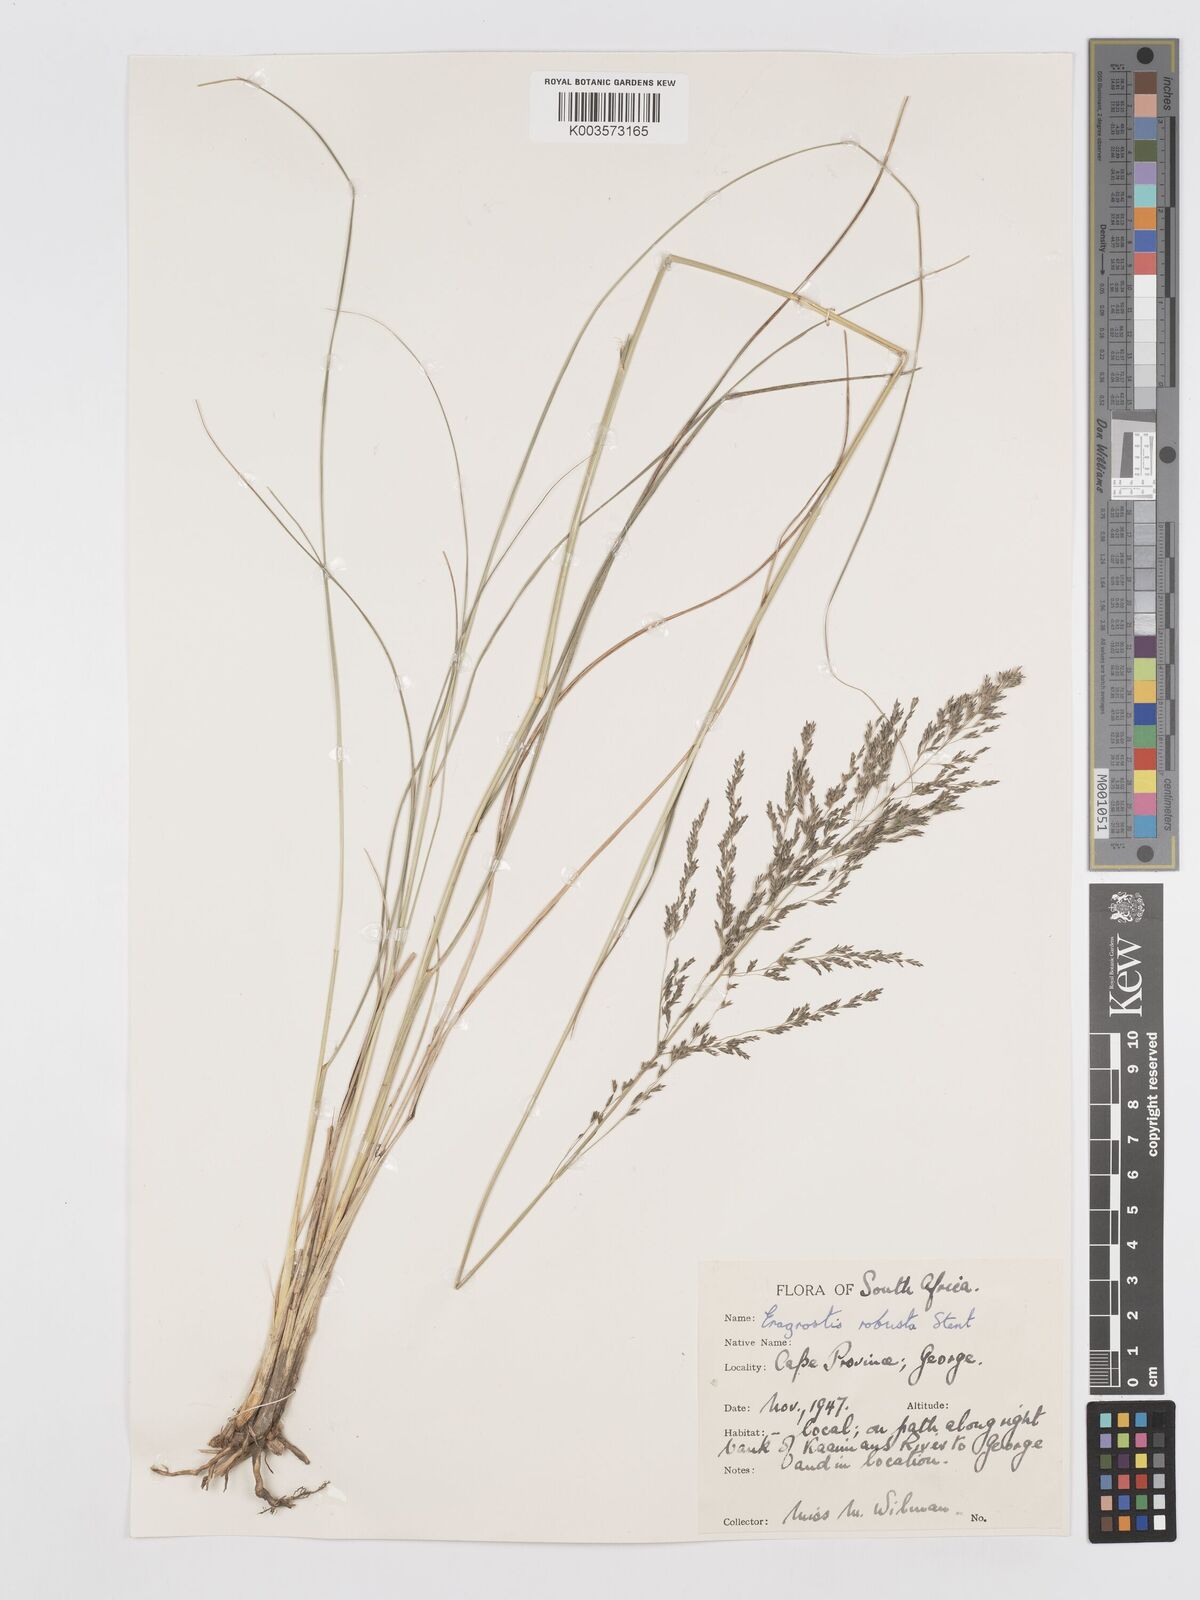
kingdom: Plantae
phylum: Tracheophyta
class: Liliopsida
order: Poales
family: Poaceae
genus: Eragrostis
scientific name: Eragrostis curvula
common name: African love-grass
